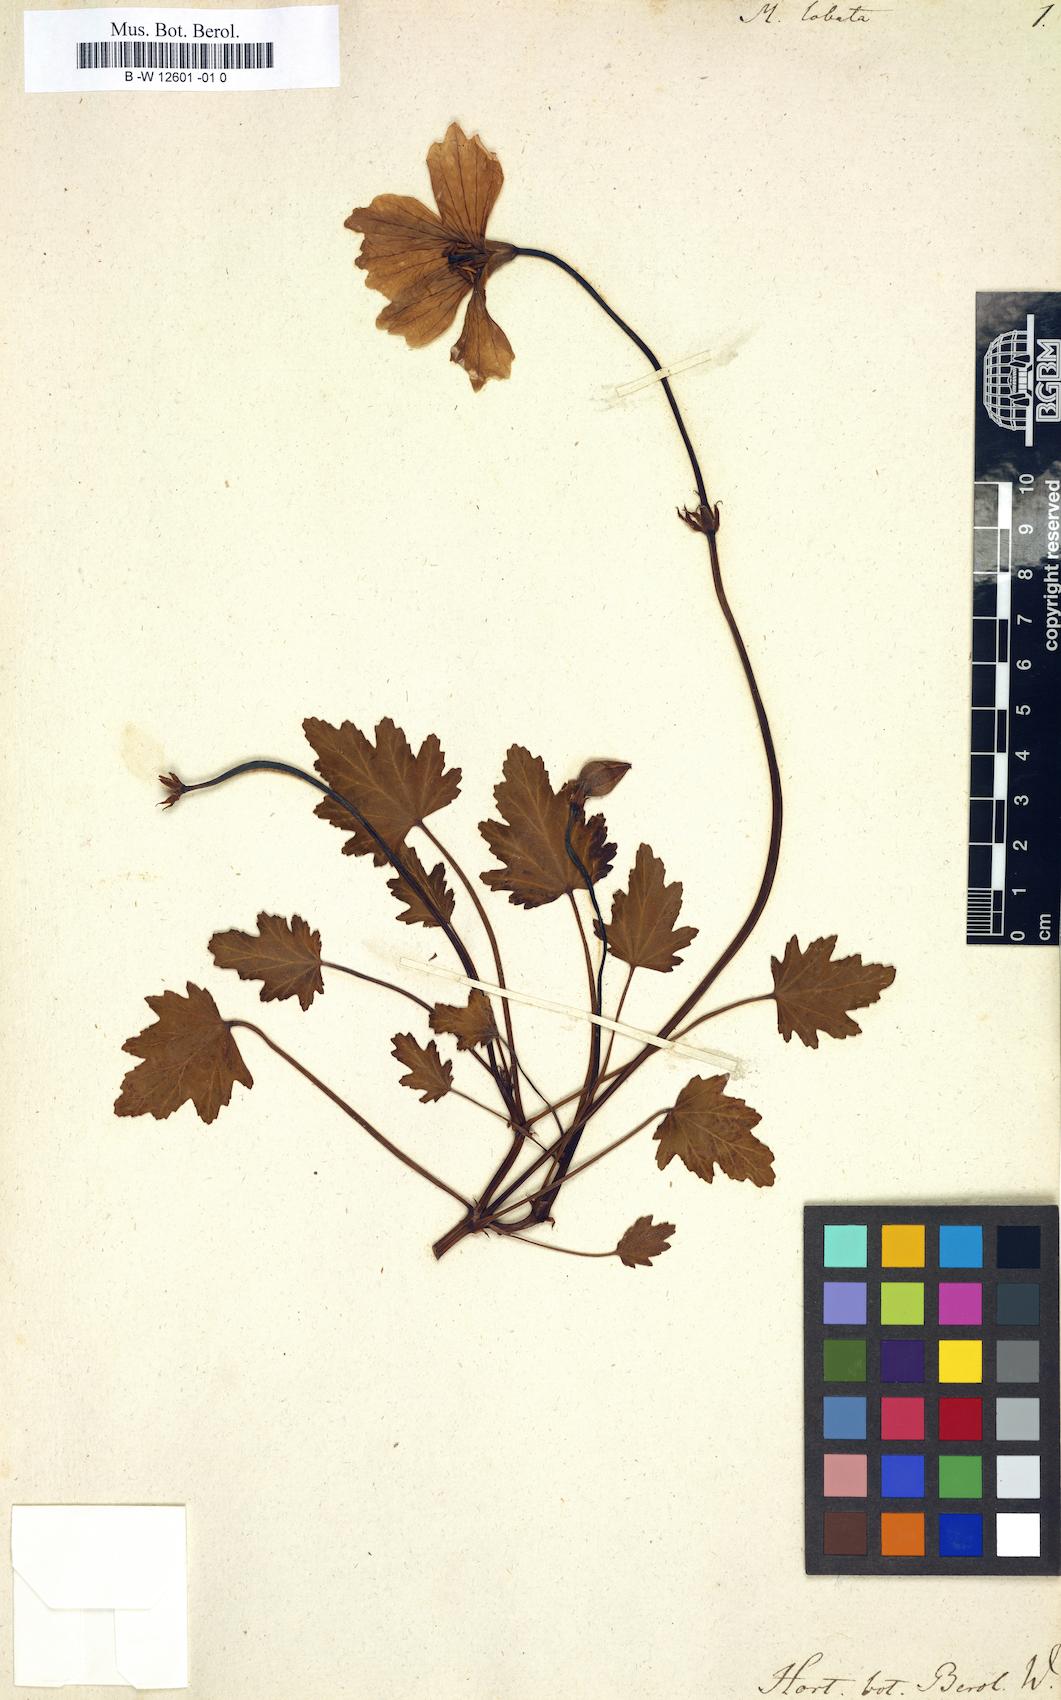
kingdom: Plantae
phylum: Tracheophyta
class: Magnoliopsida
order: Geraniales
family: Geraniaceae
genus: Monsonia
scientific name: Monsonia speciosa
